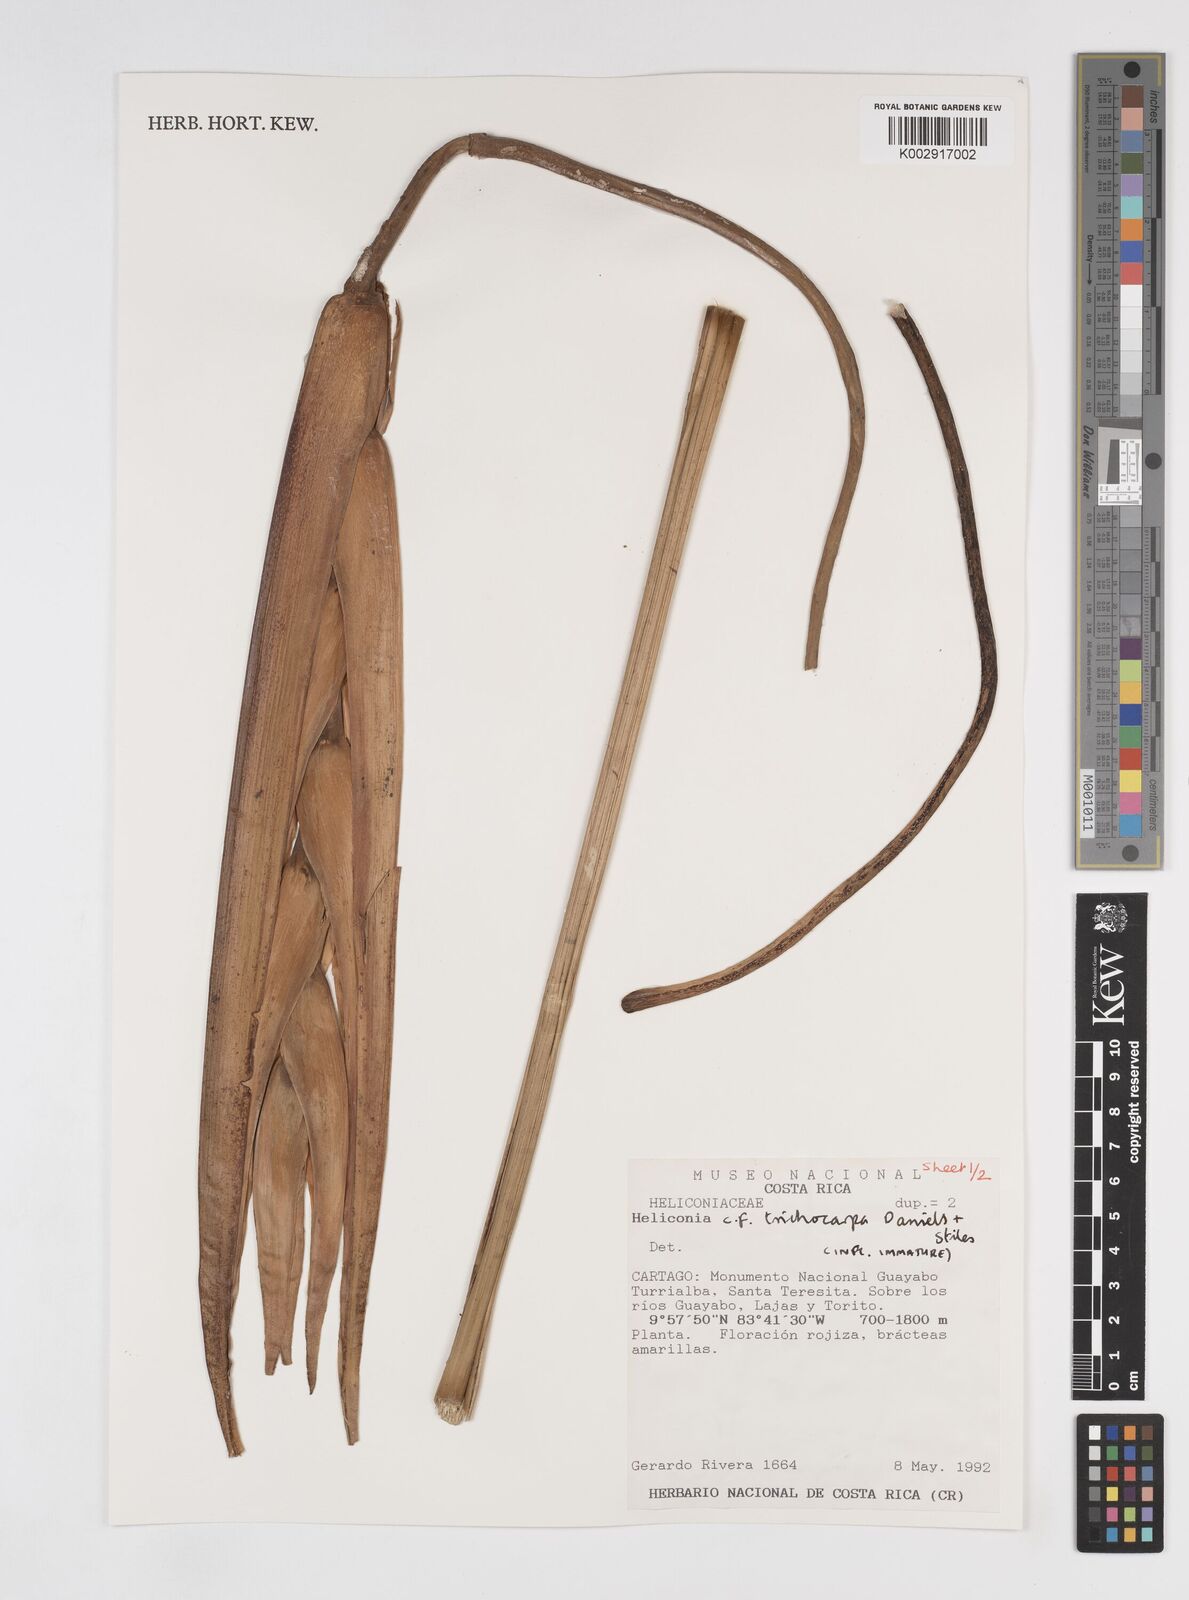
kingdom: Plantae
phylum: Tracheophyta
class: Liliopsida
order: Zingiberales
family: Heliconiaceae
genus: Heliconia
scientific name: Heliconia trichocarpa
